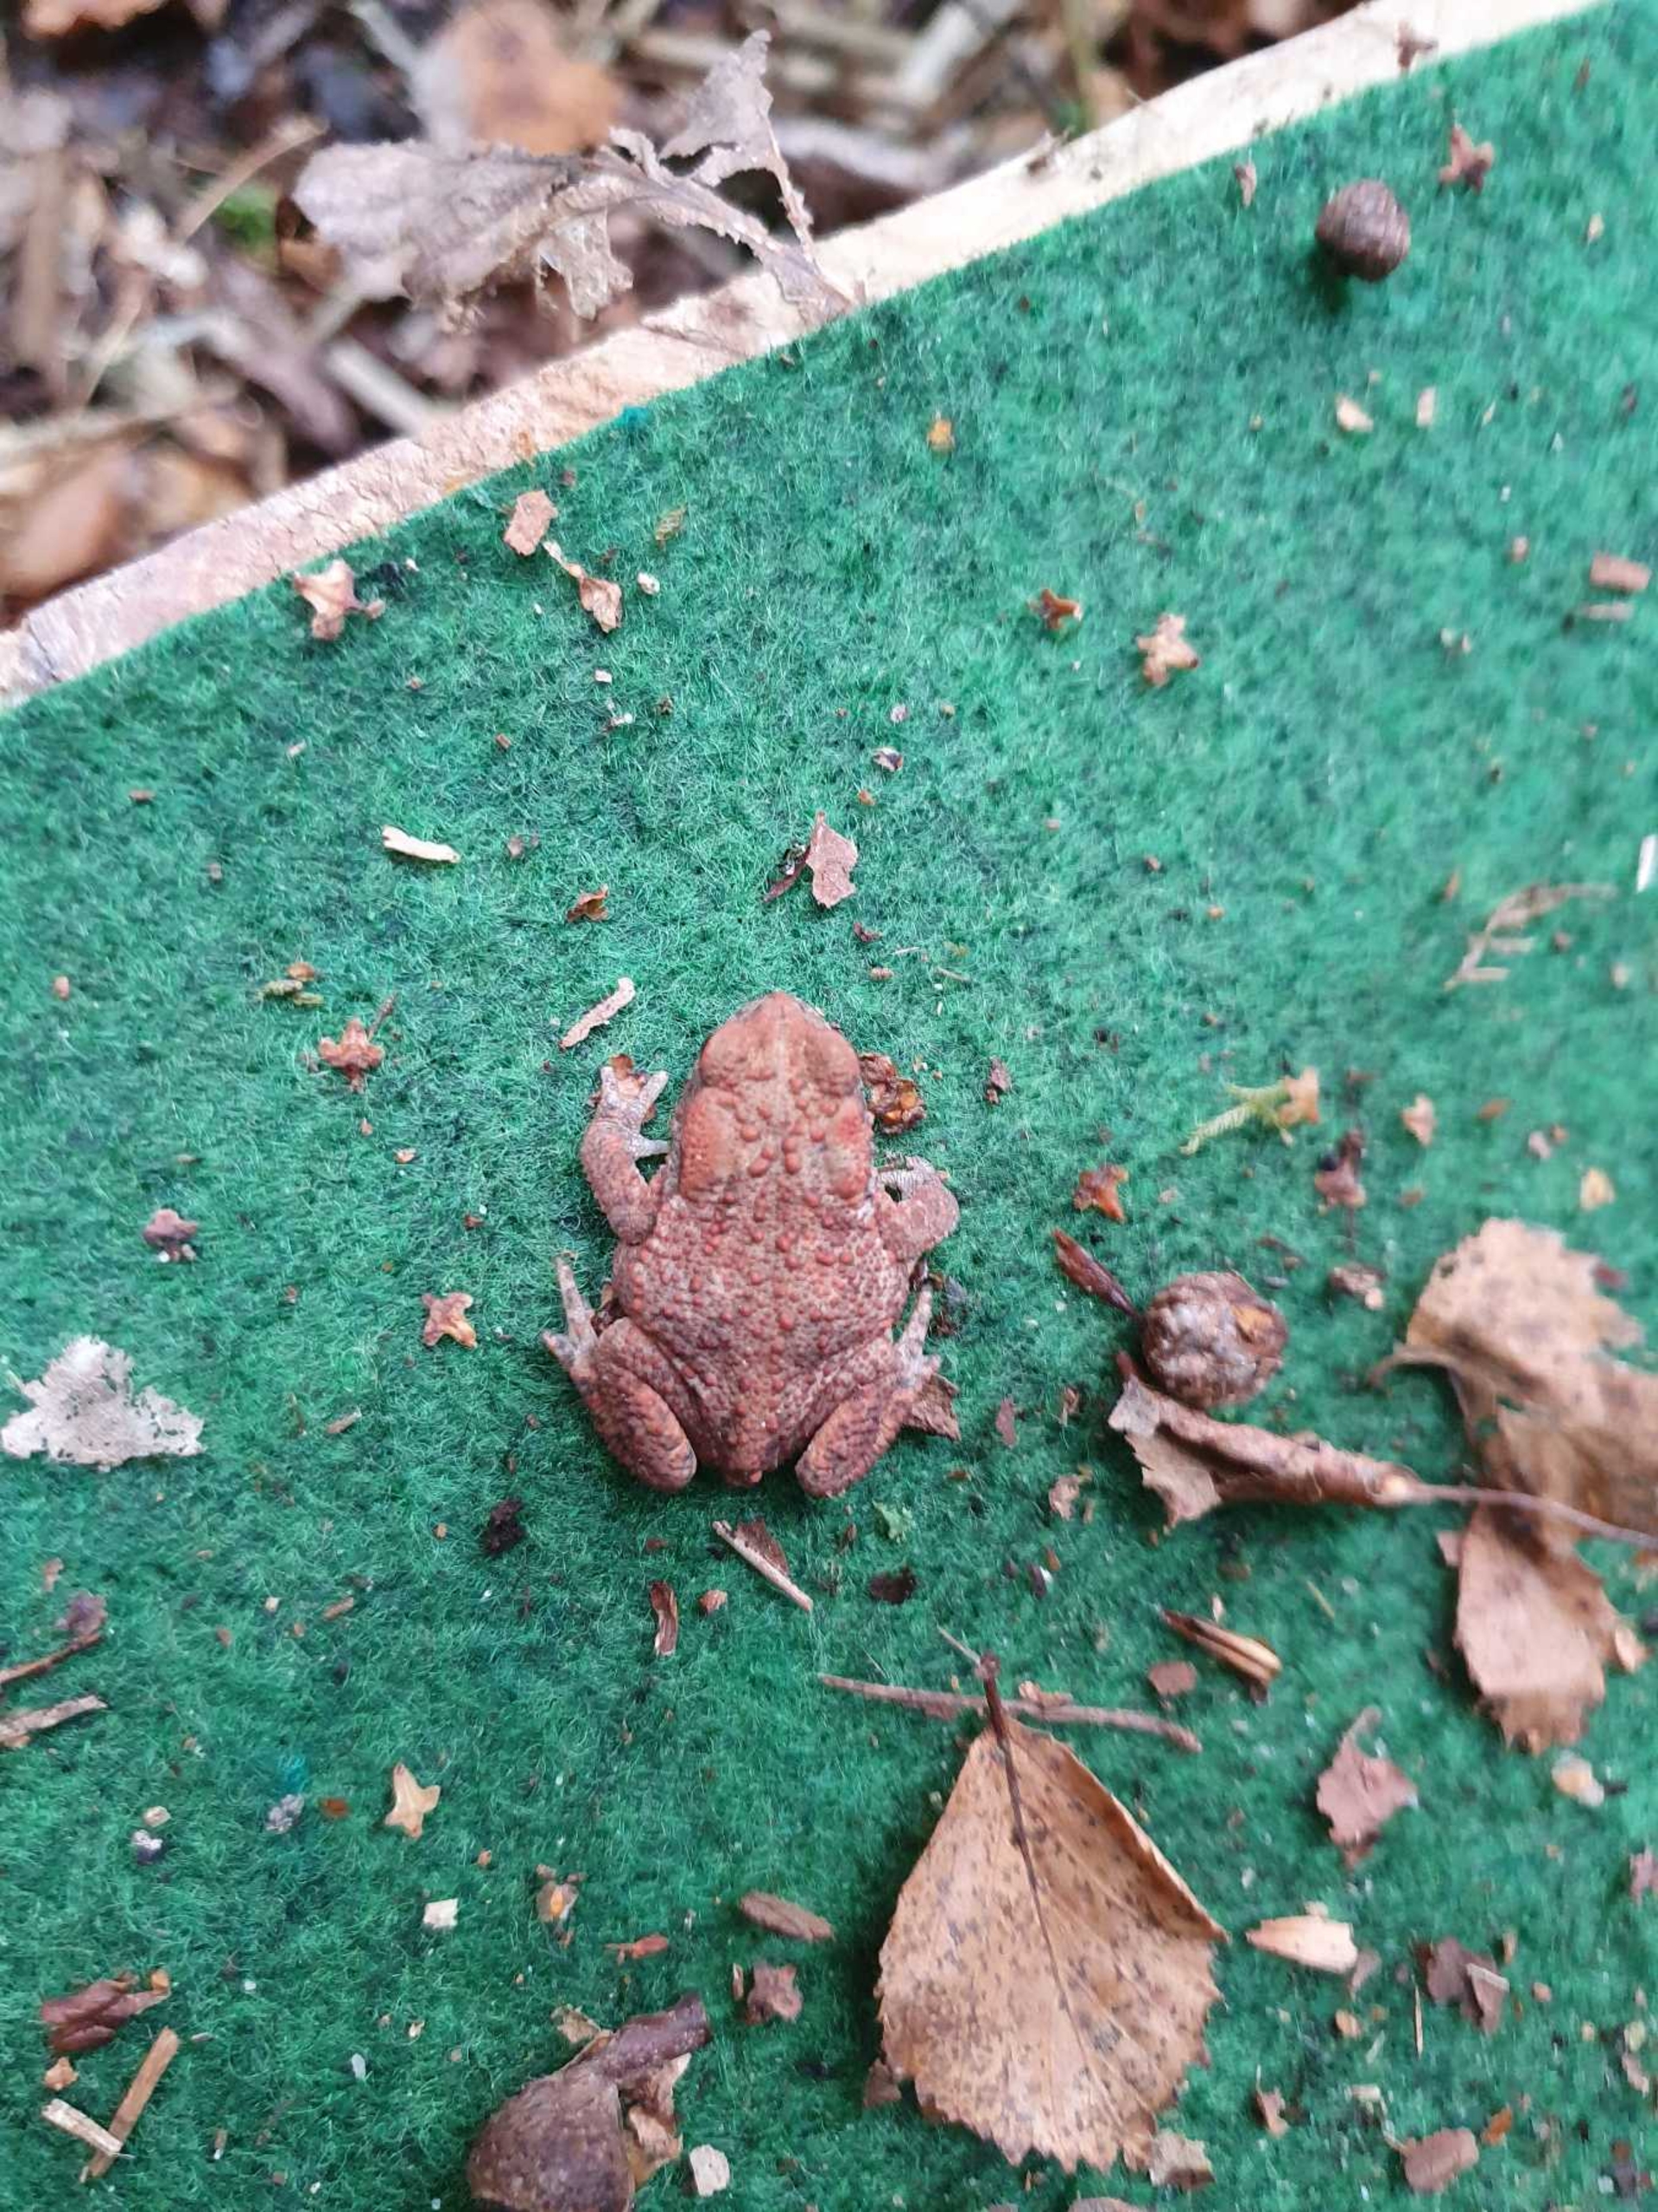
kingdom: Animalia
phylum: Chordata
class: Amphibia
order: Anura
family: Bufonidae
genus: Bufo
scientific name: Bufo bufo
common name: Skrubtudse
